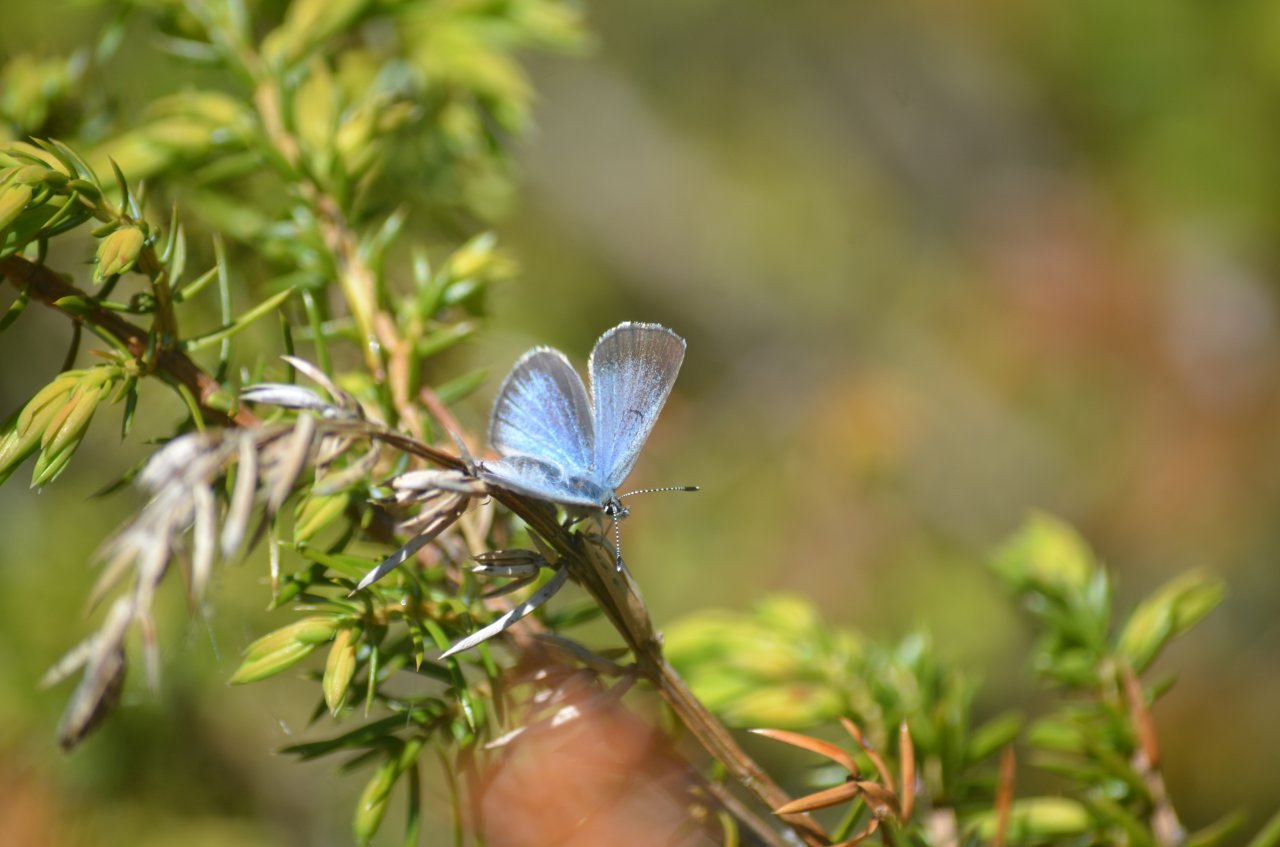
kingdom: Animalia
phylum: Arthropoda
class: Insecta
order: Lepidoptera
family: Lycaenidae
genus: Glaucopsyche
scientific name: Glaucopsyche lygdamus
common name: Silvery Blue
